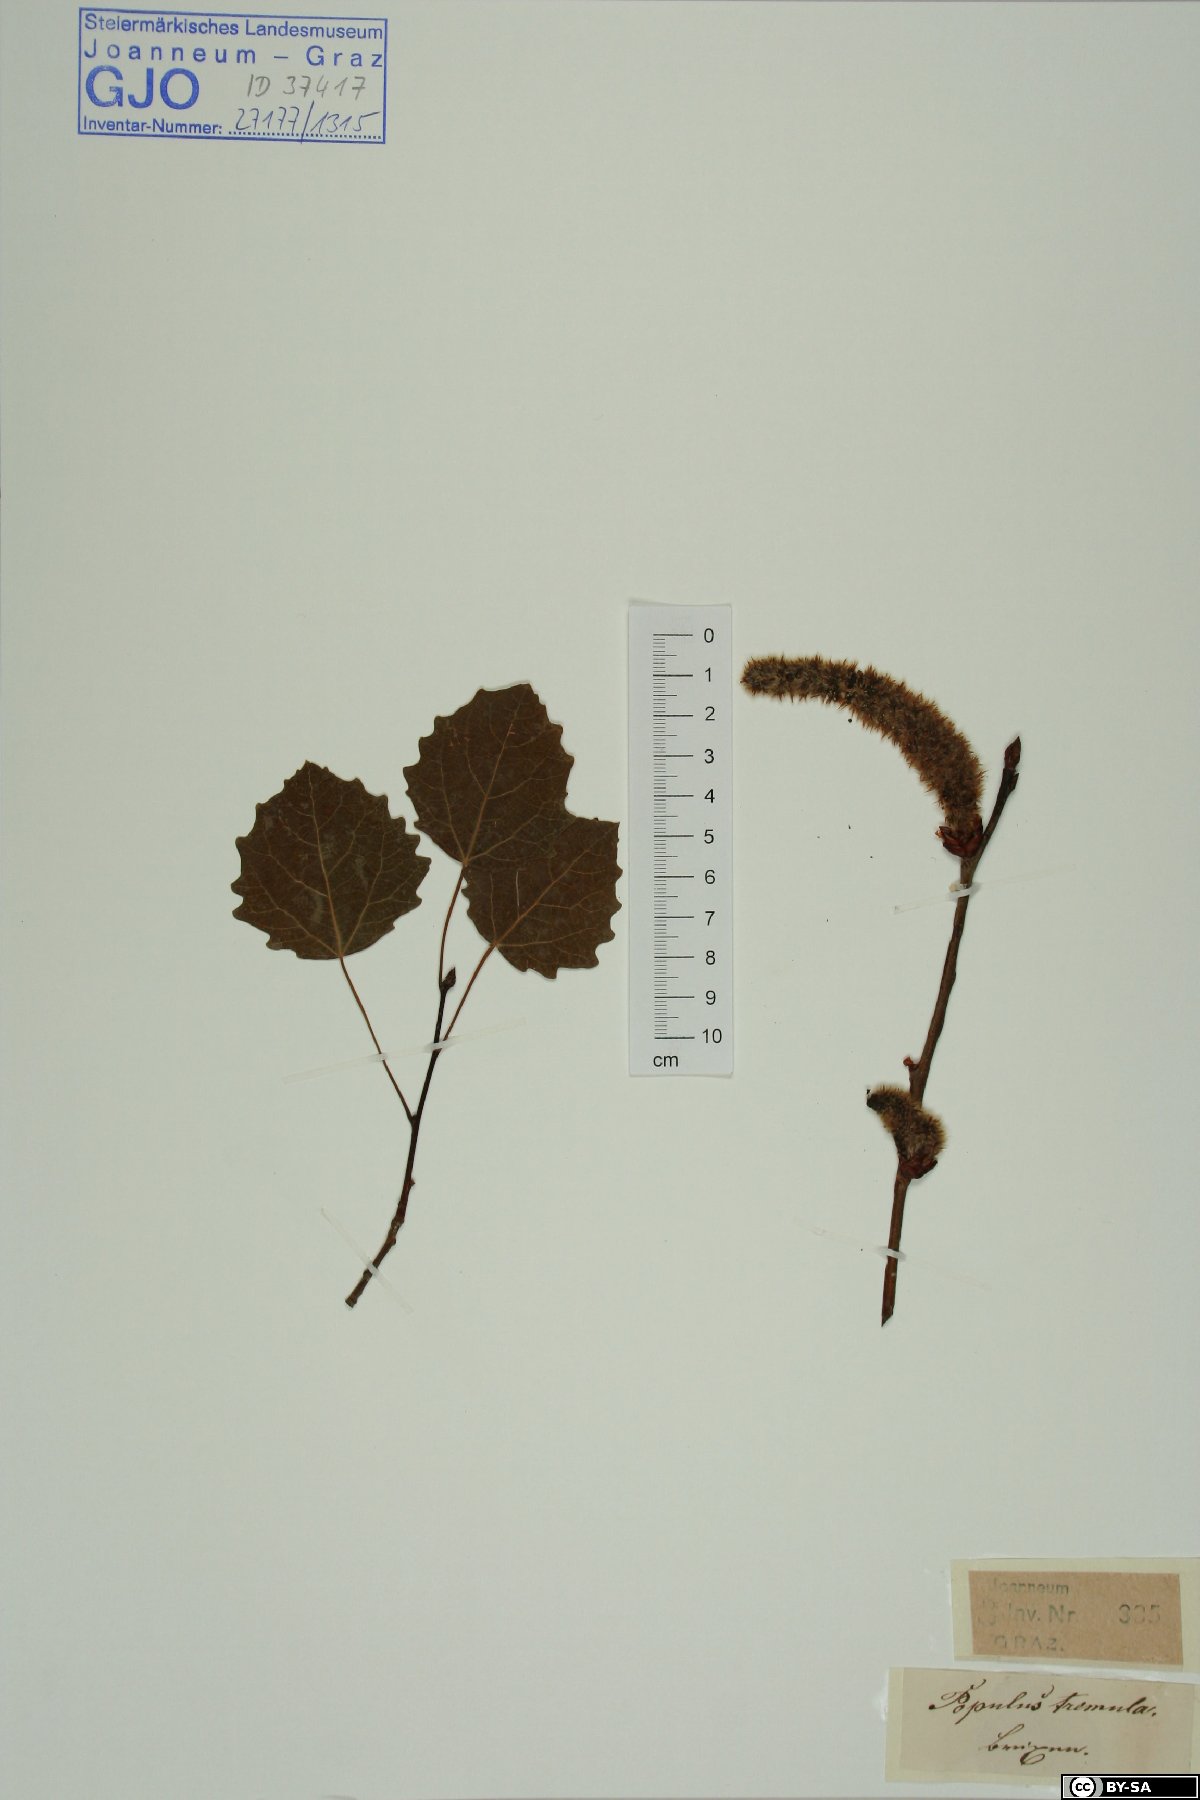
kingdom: Plantae
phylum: Tracheophyta
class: Magnoliopsida
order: Malpighiales
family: Salicaceae
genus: Populus
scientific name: Populus tremula
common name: European aspen
